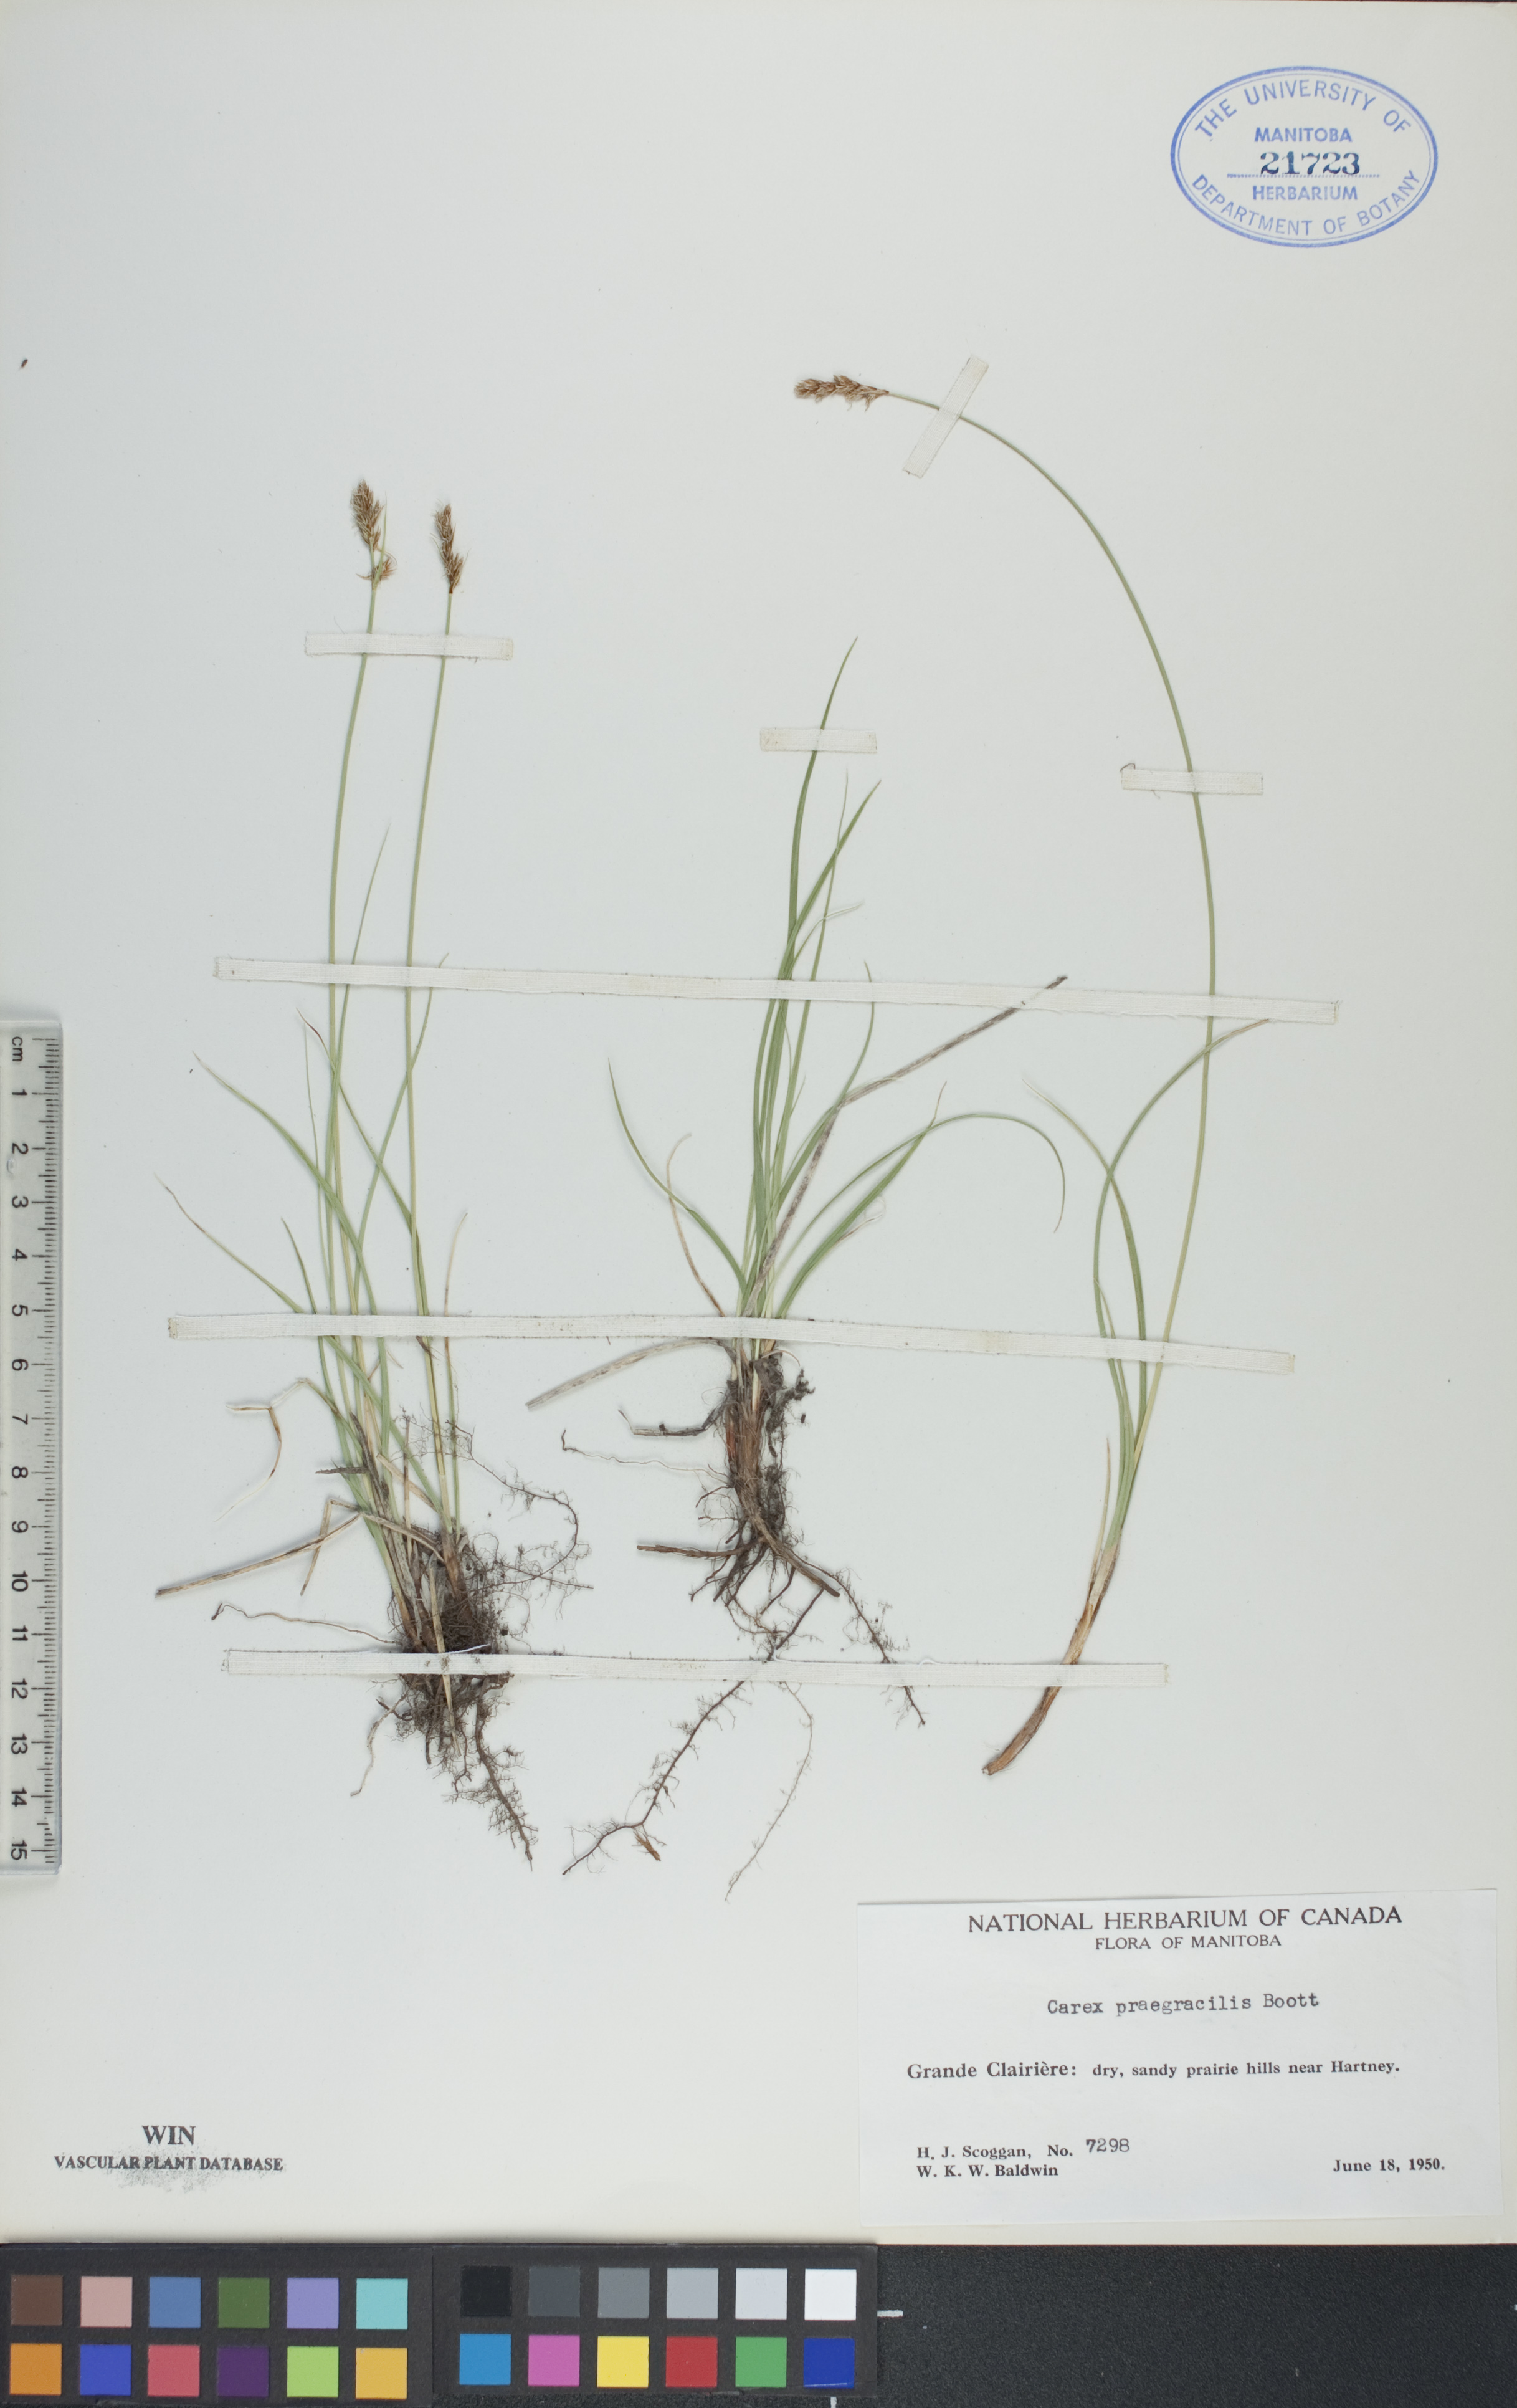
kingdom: Plantae
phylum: Tracheophyta
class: Liliopsida
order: Poales
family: Cyperaceae
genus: Carex
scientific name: Carex praegracilis
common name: Black creeper sedge
